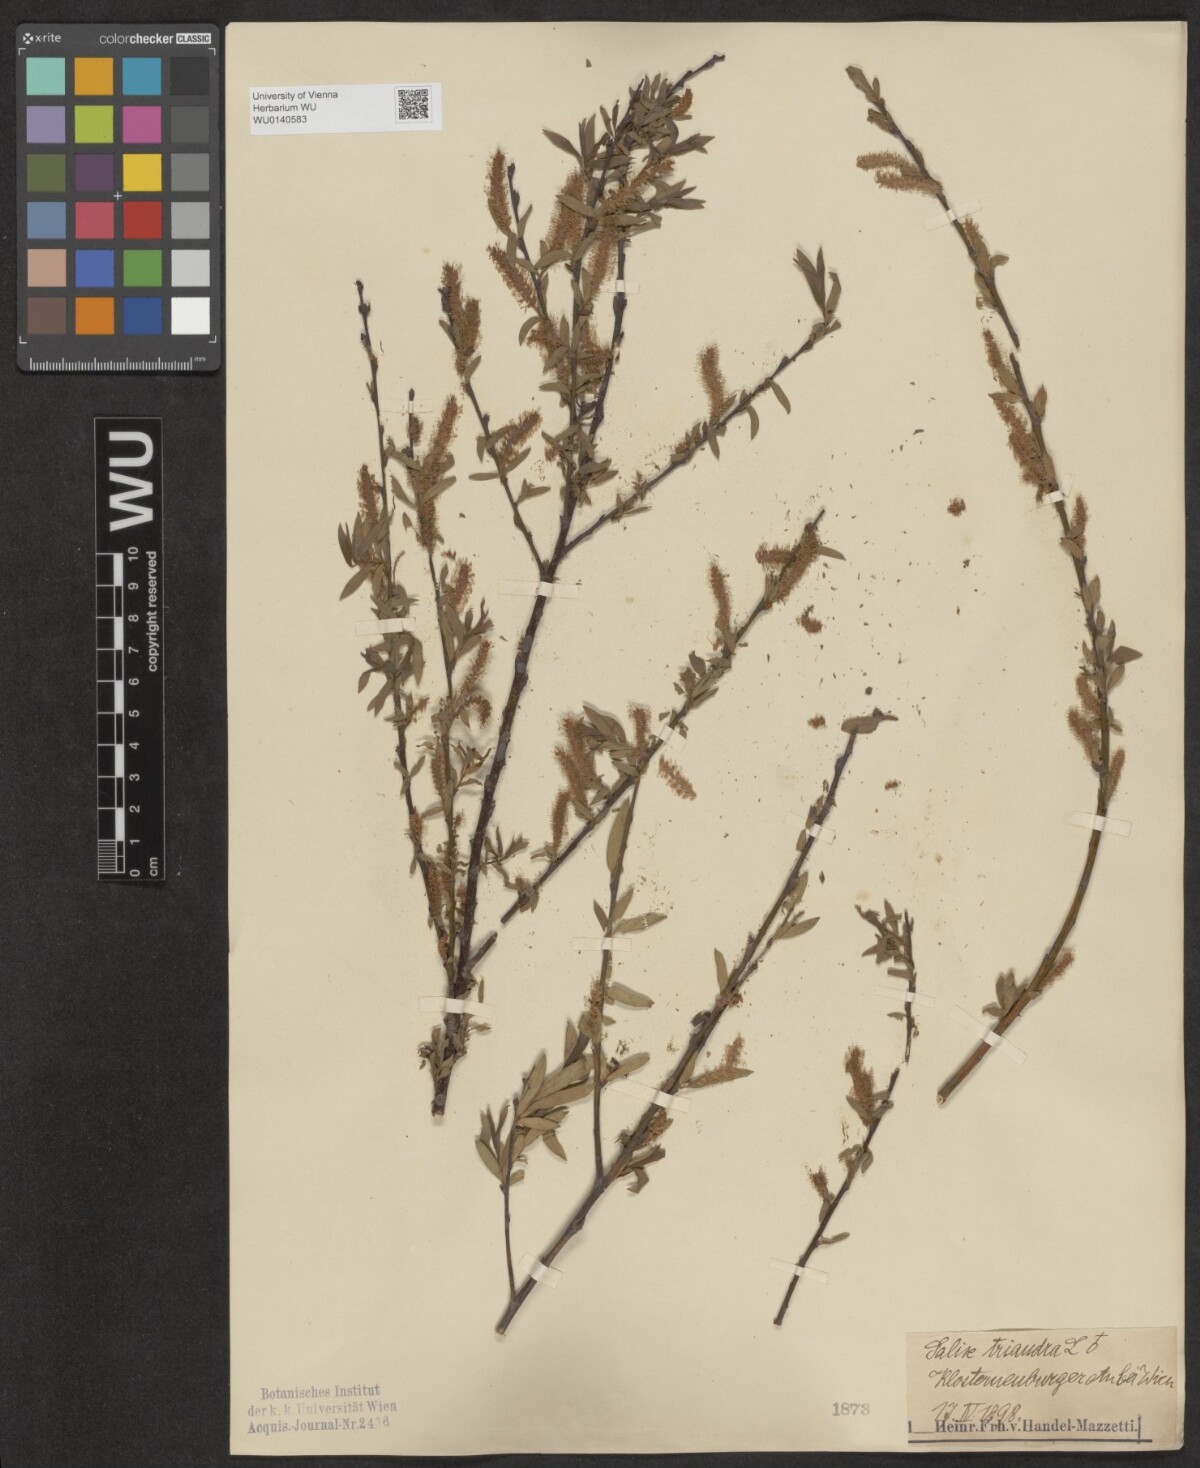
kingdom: Plantae
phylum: Tracheophyta
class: Magnoliopsida
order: Malpighiales
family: Salicaceae
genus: Salix
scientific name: Salix triandra
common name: Almond willow
